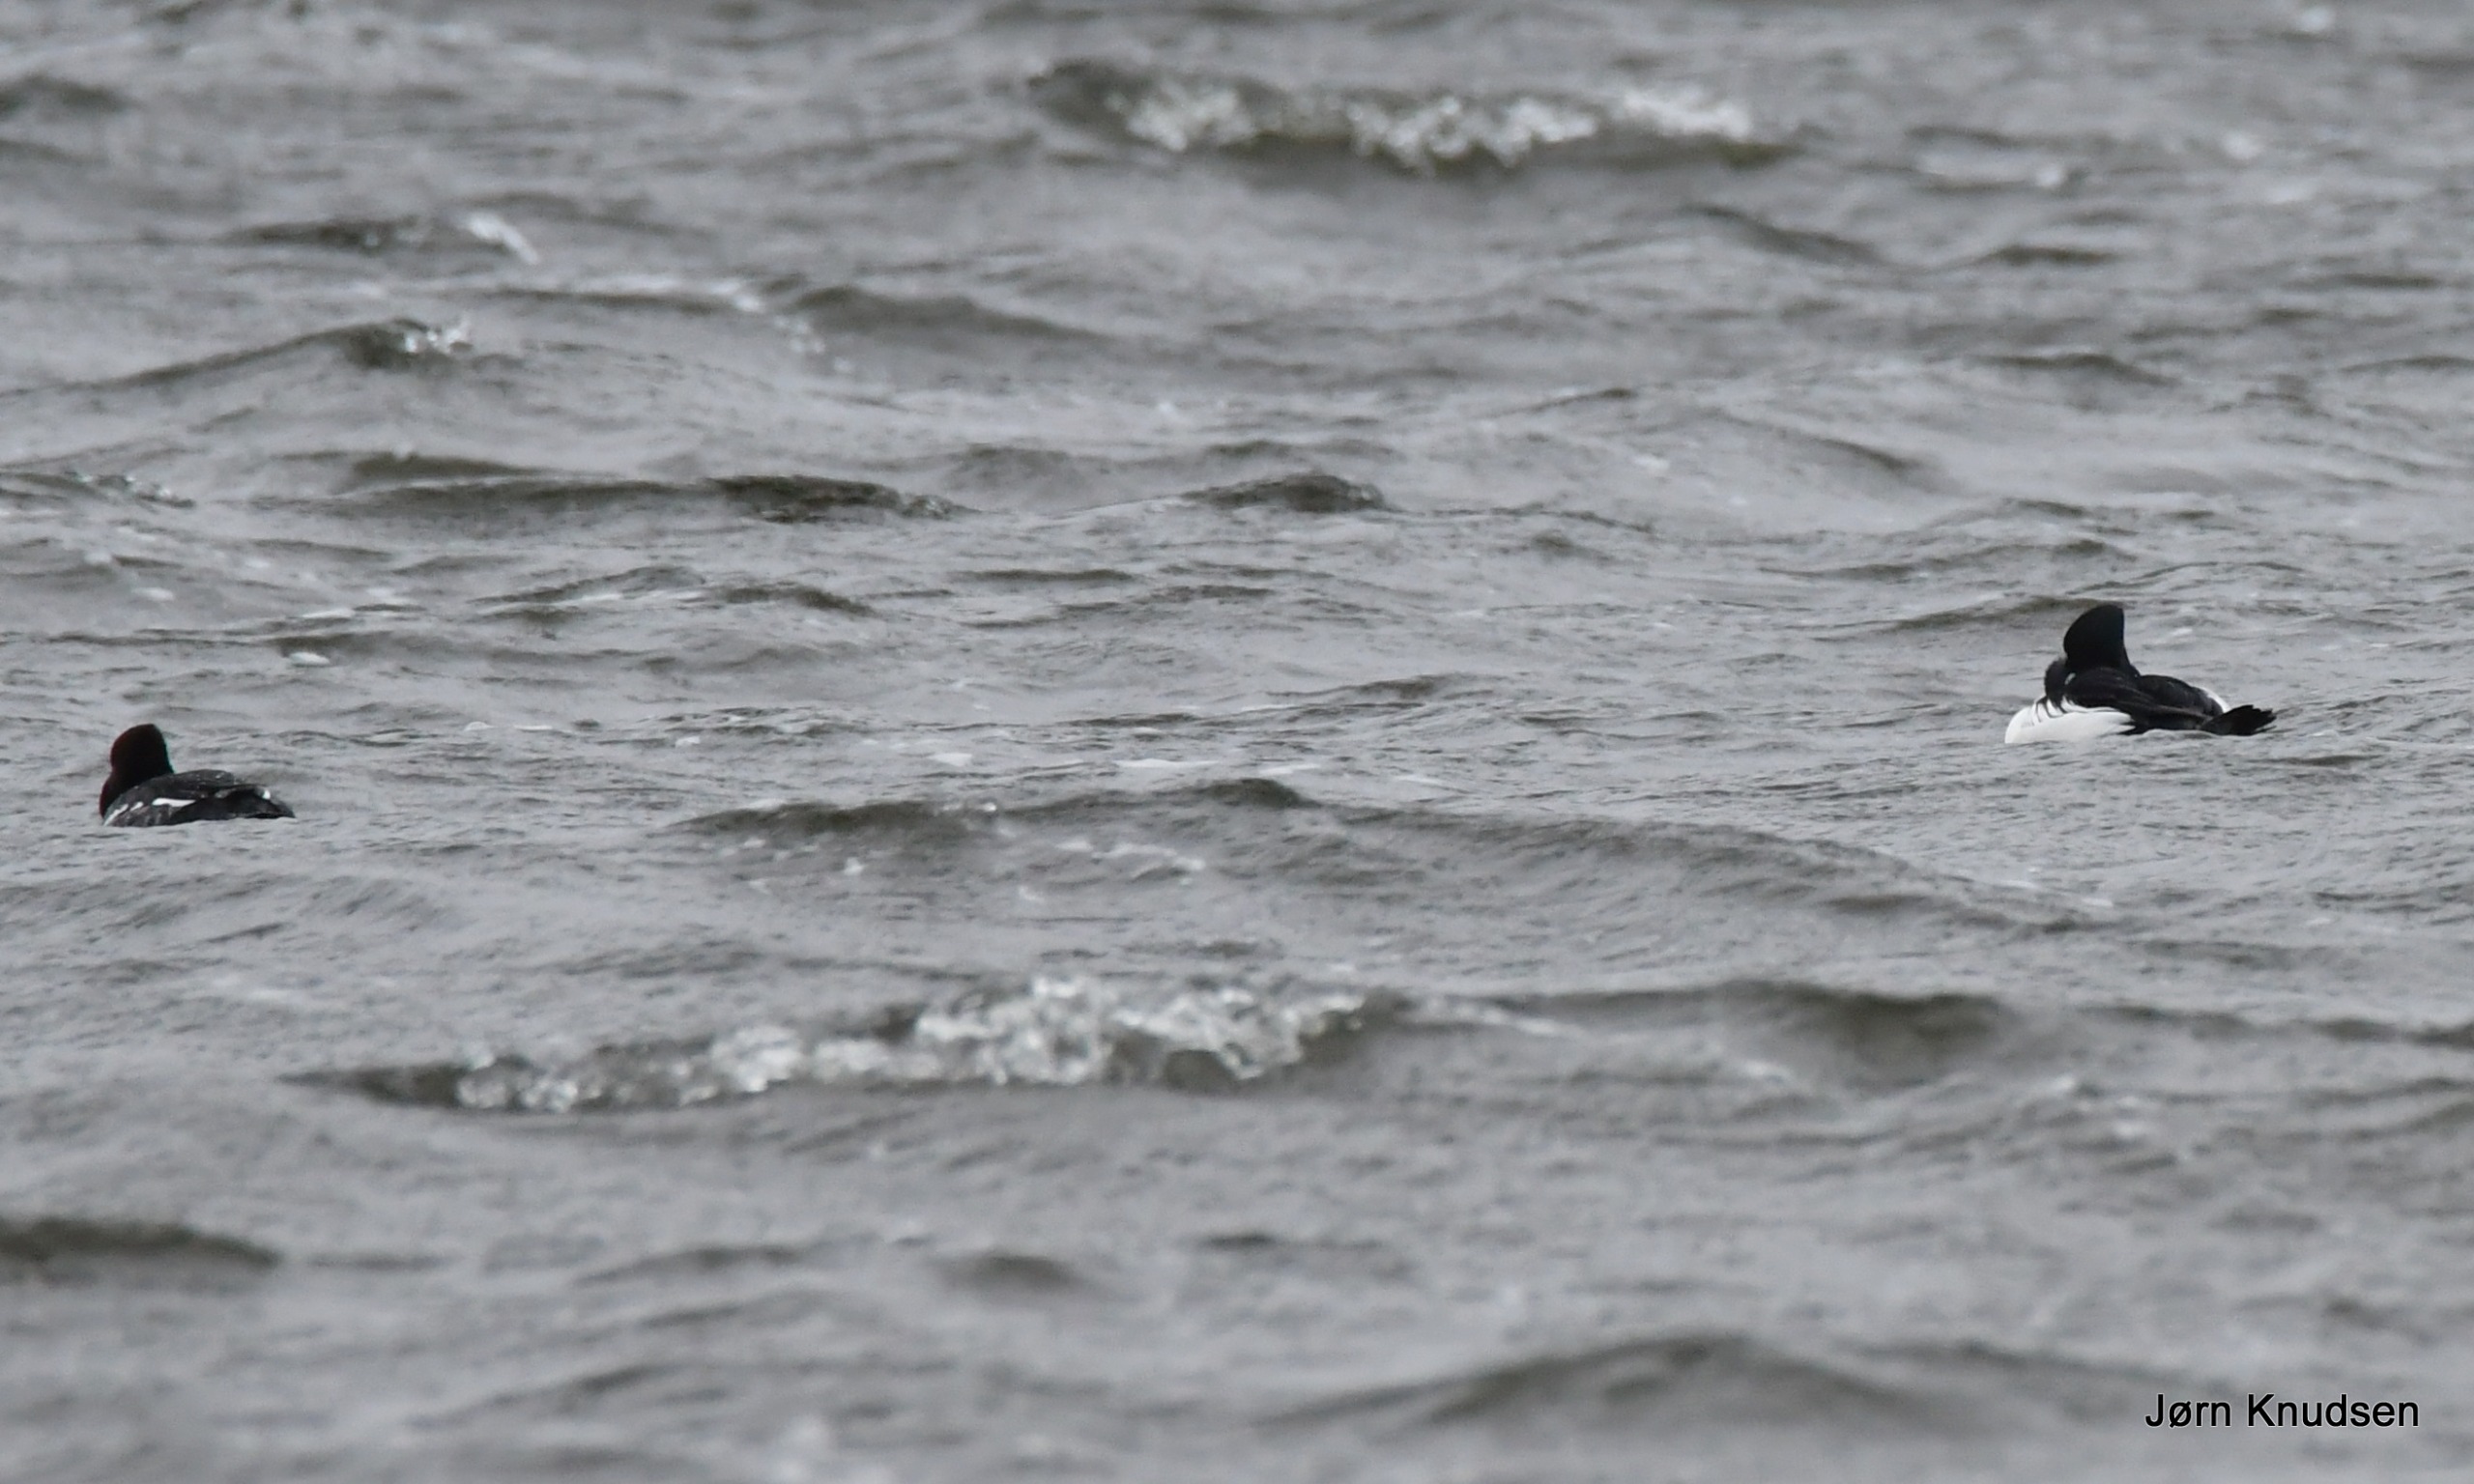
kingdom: Animalia
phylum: Chordata
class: Aves
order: Anseriformes
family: Anatidae
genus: Bucephala
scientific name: Bucephala clangula
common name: Hvinand
